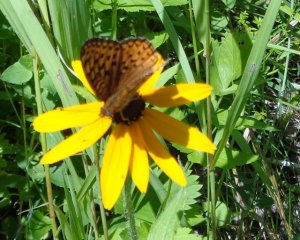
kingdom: Animalia
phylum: Arthropoda
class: Insecta
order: Lepidoptera
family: Nymphalidae
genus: Speyeria
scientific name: Speyeria atlantis
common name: Atlantis Fritillary
